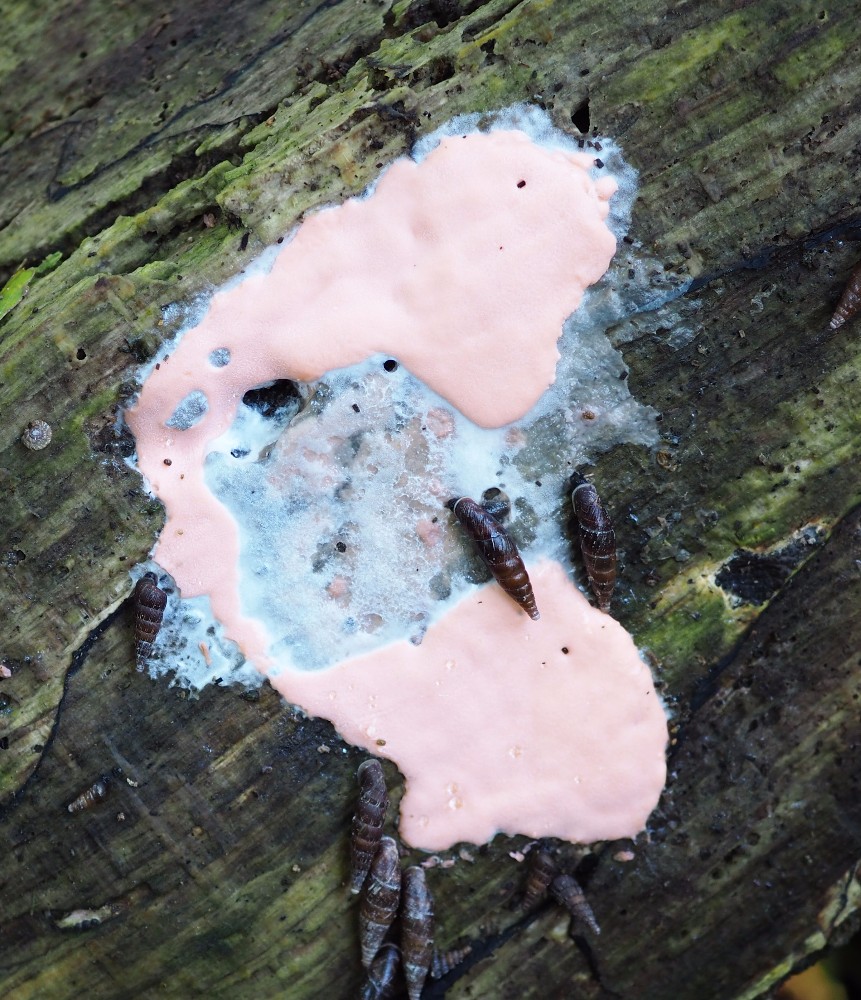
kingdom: Protozoa
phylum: Mycetozoa
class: Myxomycetes
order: Trichiales
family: Dictydiaethaliaceae
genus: Dictydiaethalium
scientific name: Dictydiaethalium plumbeum
